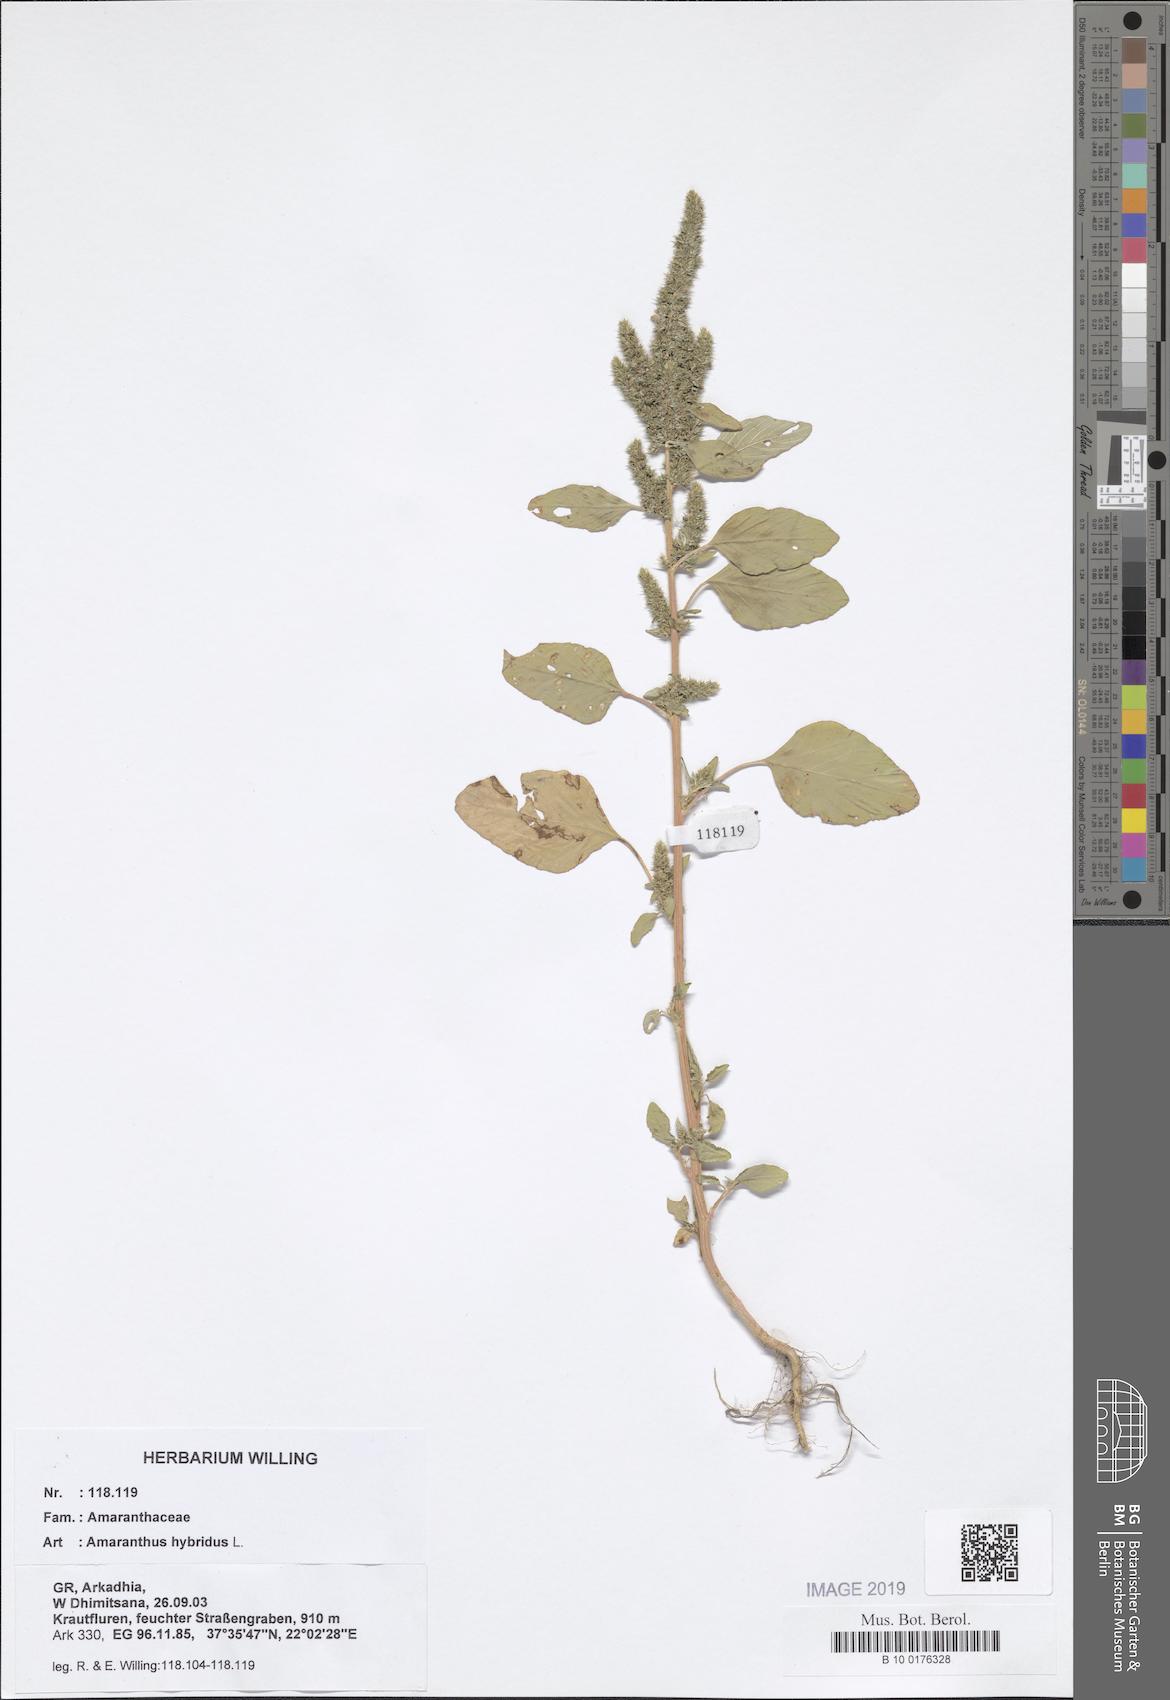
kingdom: Plantae
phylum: Tracheophyta
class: Magnoliopsida
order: Caryophyllales
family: Amaranthaceae
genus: Amaranthus
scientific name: Amaranthus hybridus
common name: Green amaranth
